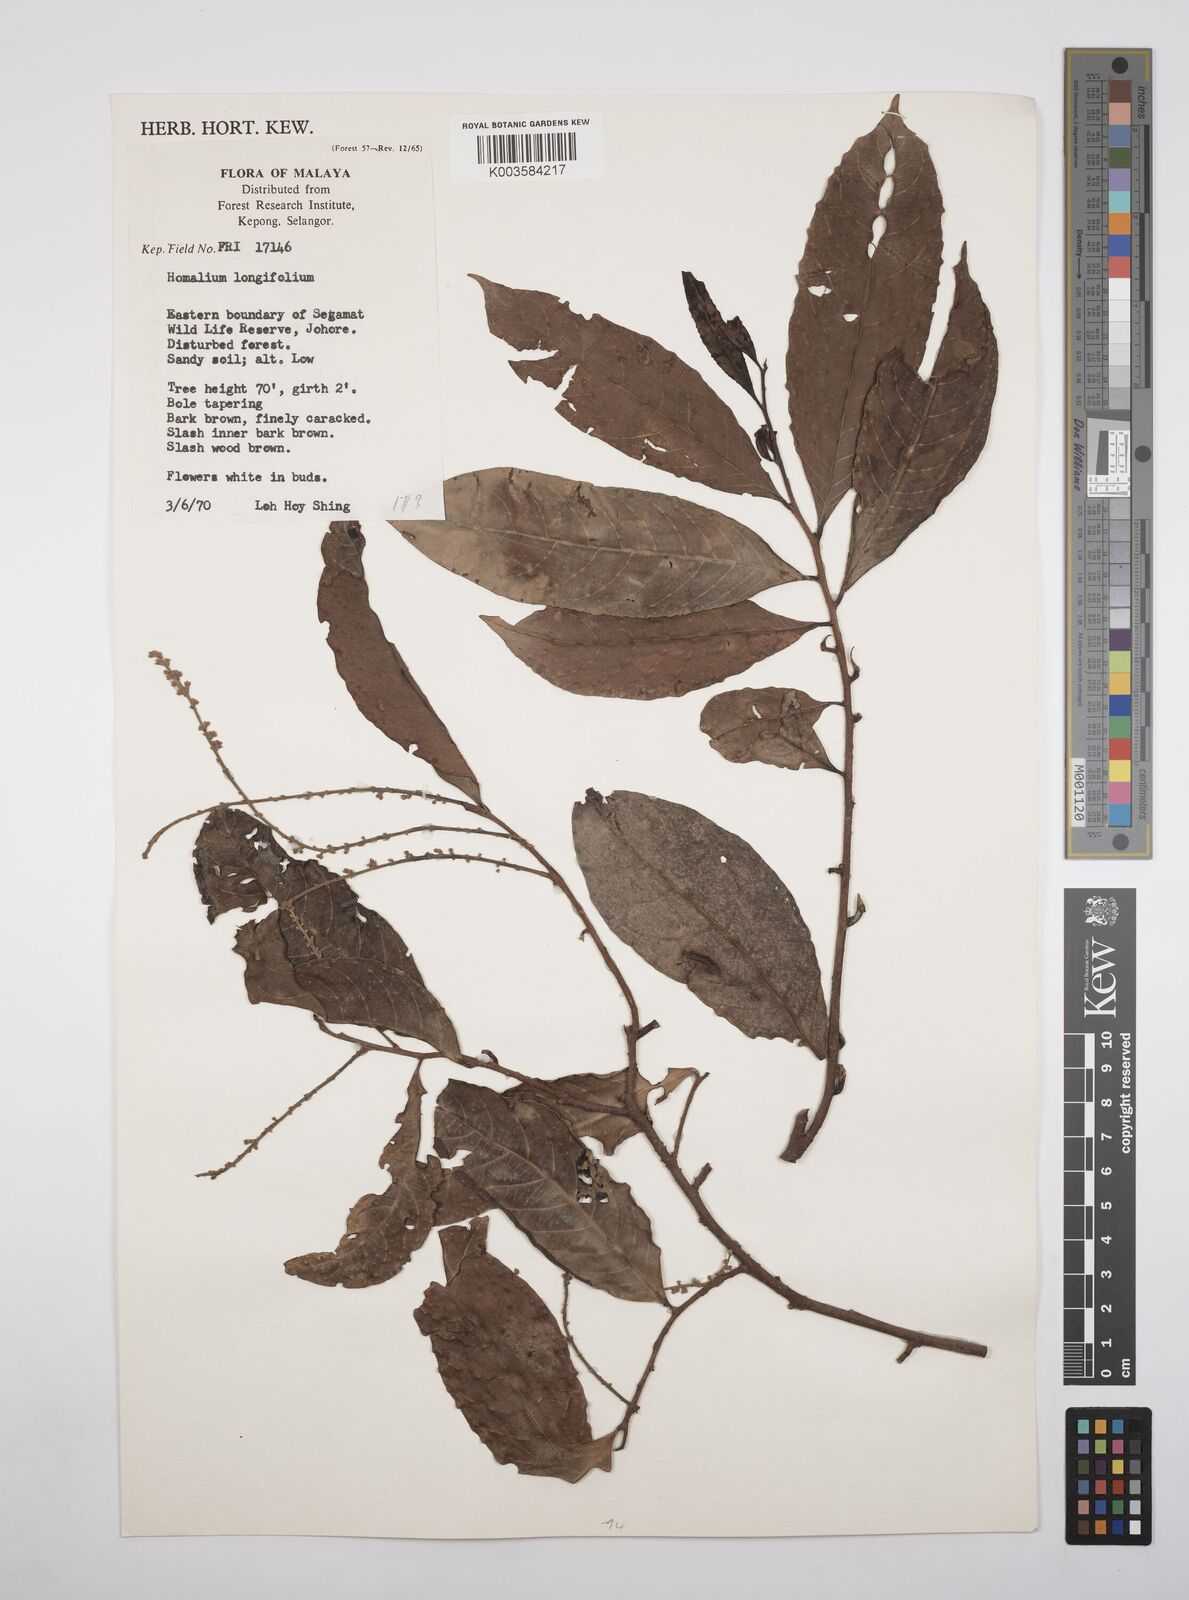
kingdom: Plantae
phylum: Tracheophyta
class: Magnoliopsida
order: Malpighiales
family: Salicaceae
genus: Homalium
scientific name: Homalium longifolium
